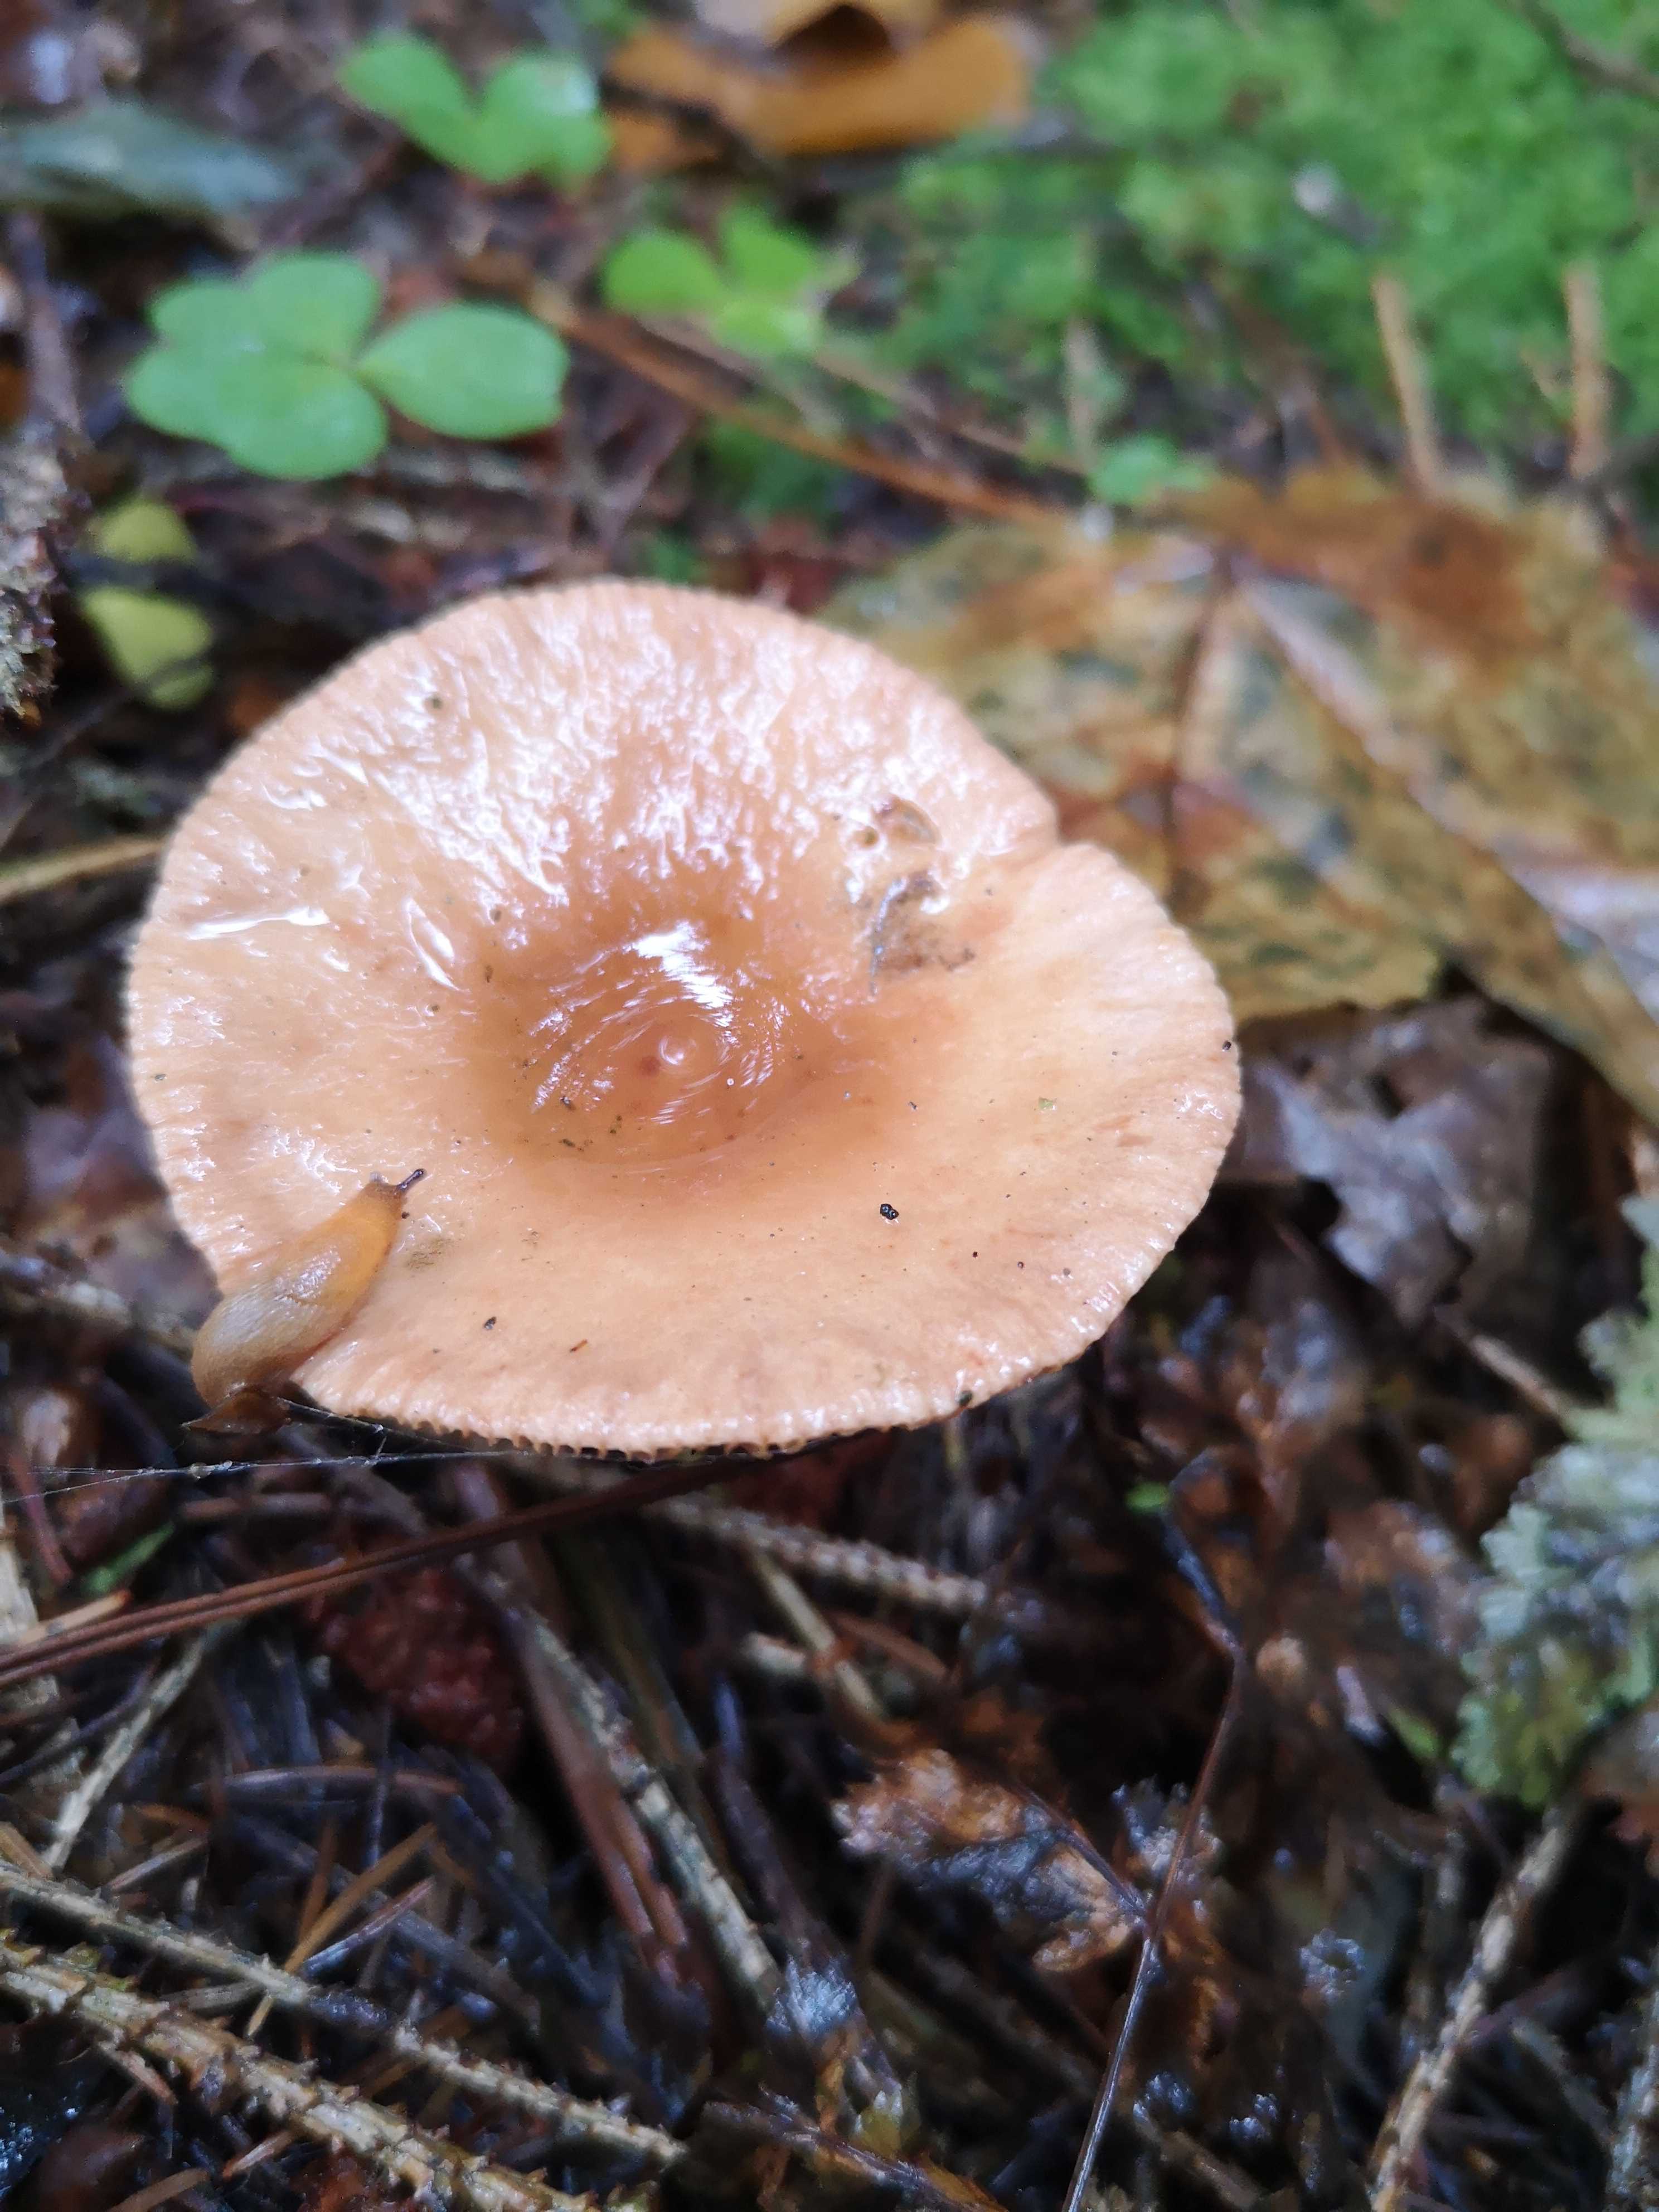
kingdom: Fungi
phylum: Basidiomycota
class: Agaricomycetes
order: Russulales
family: Russulaceae
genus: Lactarius
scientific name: Lactarius
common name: mælkehat
